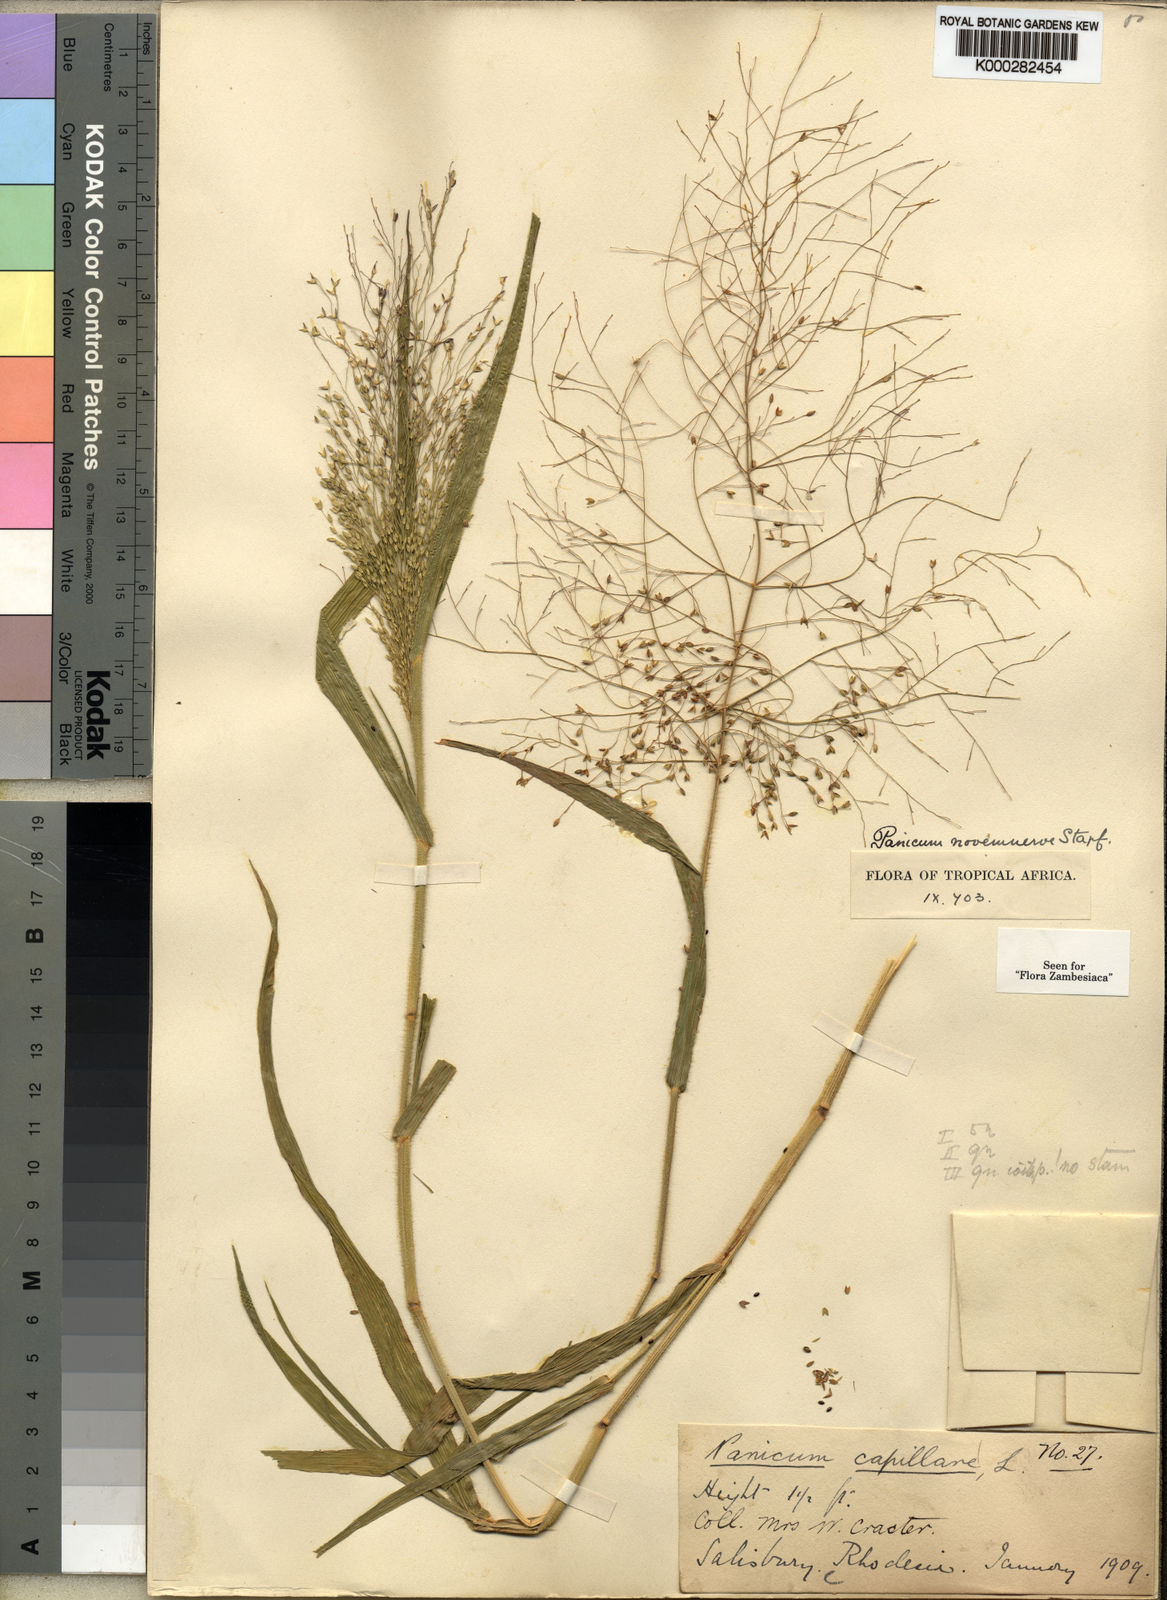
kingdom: Plantae
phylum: Tracheophyta
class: Liliopsida
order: Poales
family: Poaceae
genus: Panicum
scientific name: Panicum novemnerve
